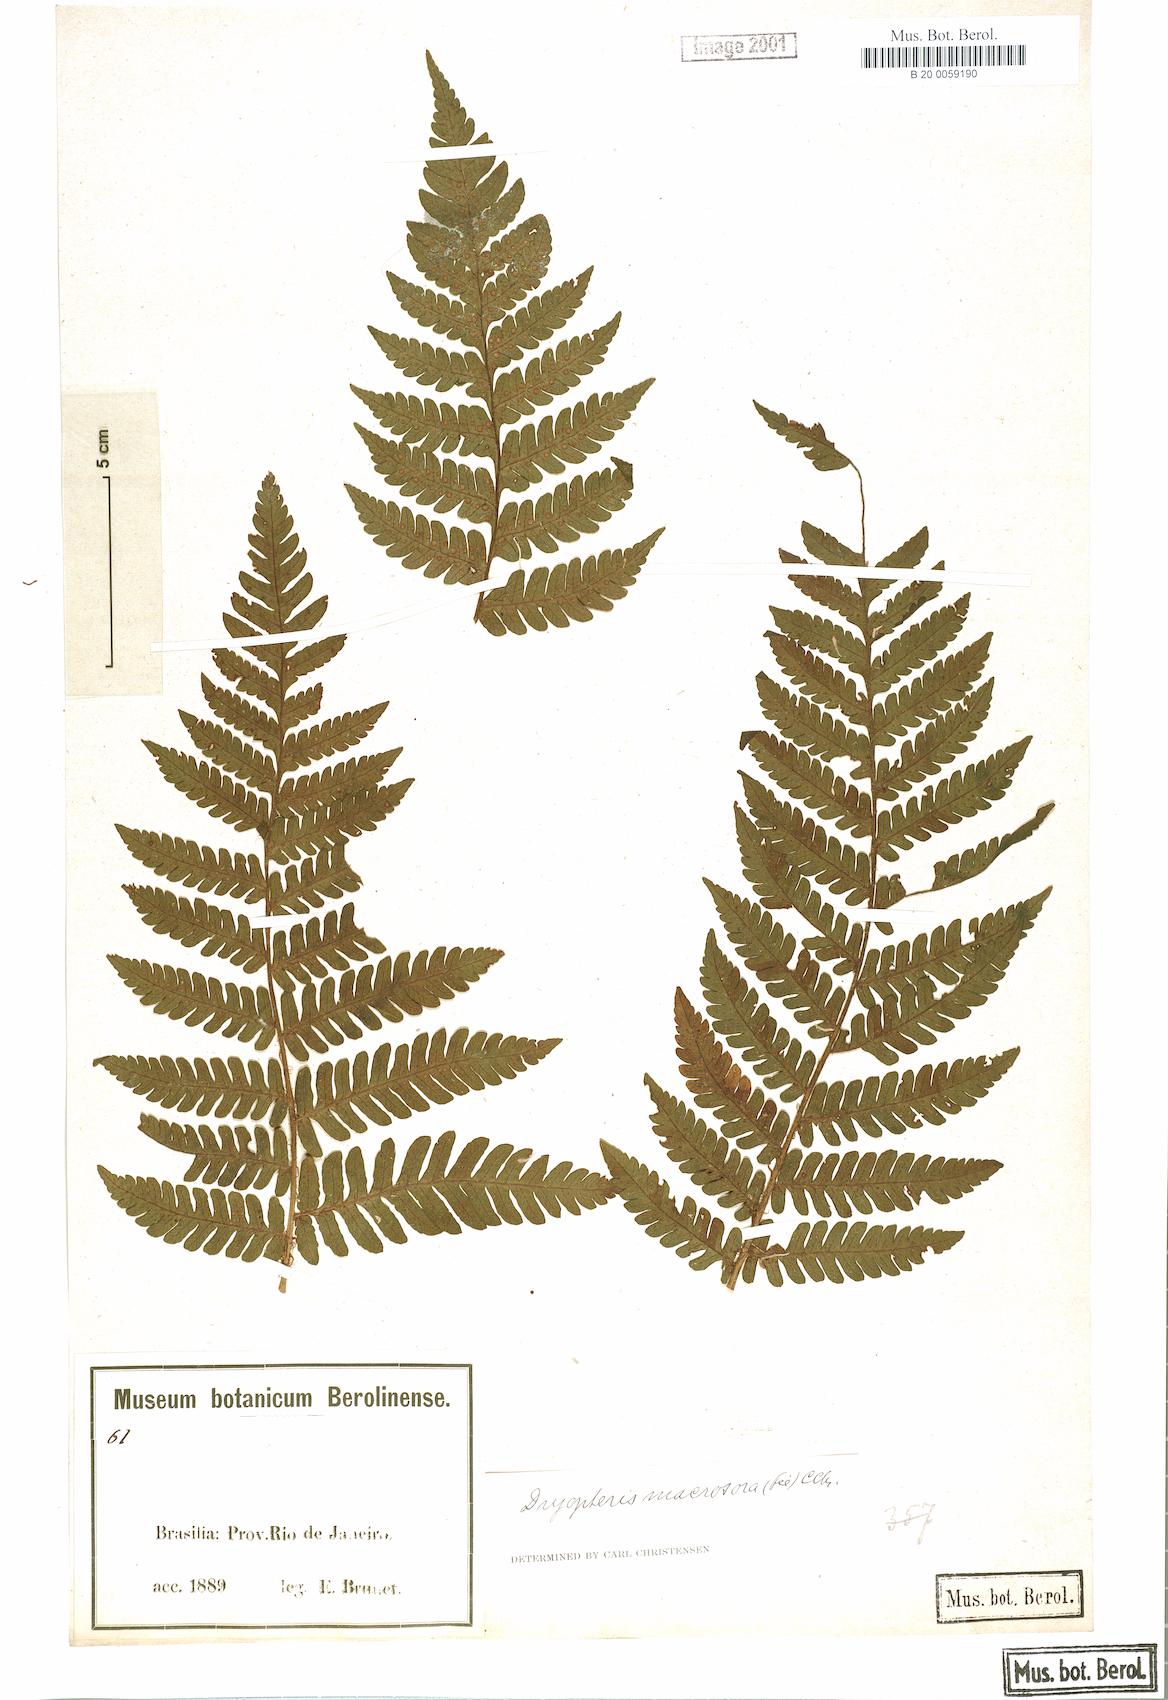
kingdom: Plantae
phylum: Tracheophyta
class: Polypodiopsida
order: Polypodiales
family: Dryopteridaceae
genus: Megalastrum
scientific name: Megalastrum inaequale
